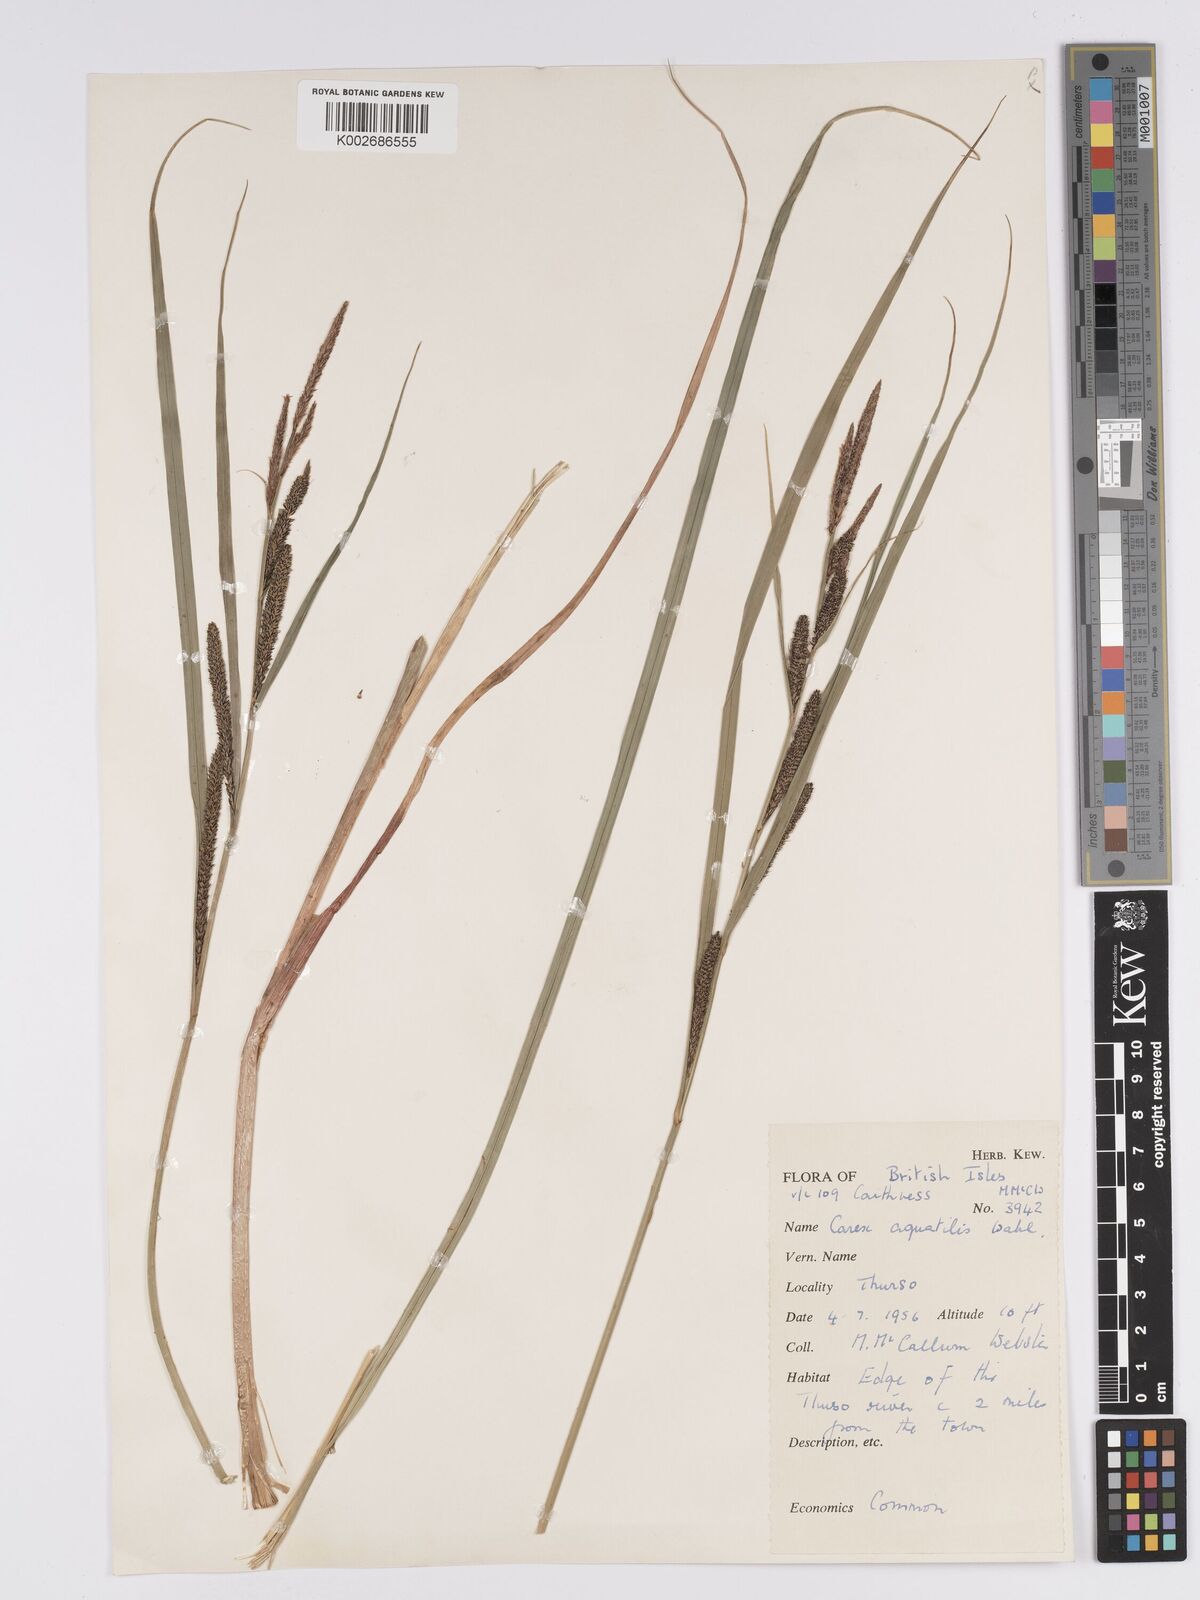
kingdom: Plantae
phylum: Tracheophyta
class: Liliopsida
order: Poales
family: Cyperaceae
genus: Carex
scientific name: Carex aquatilis
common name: Water sedge
